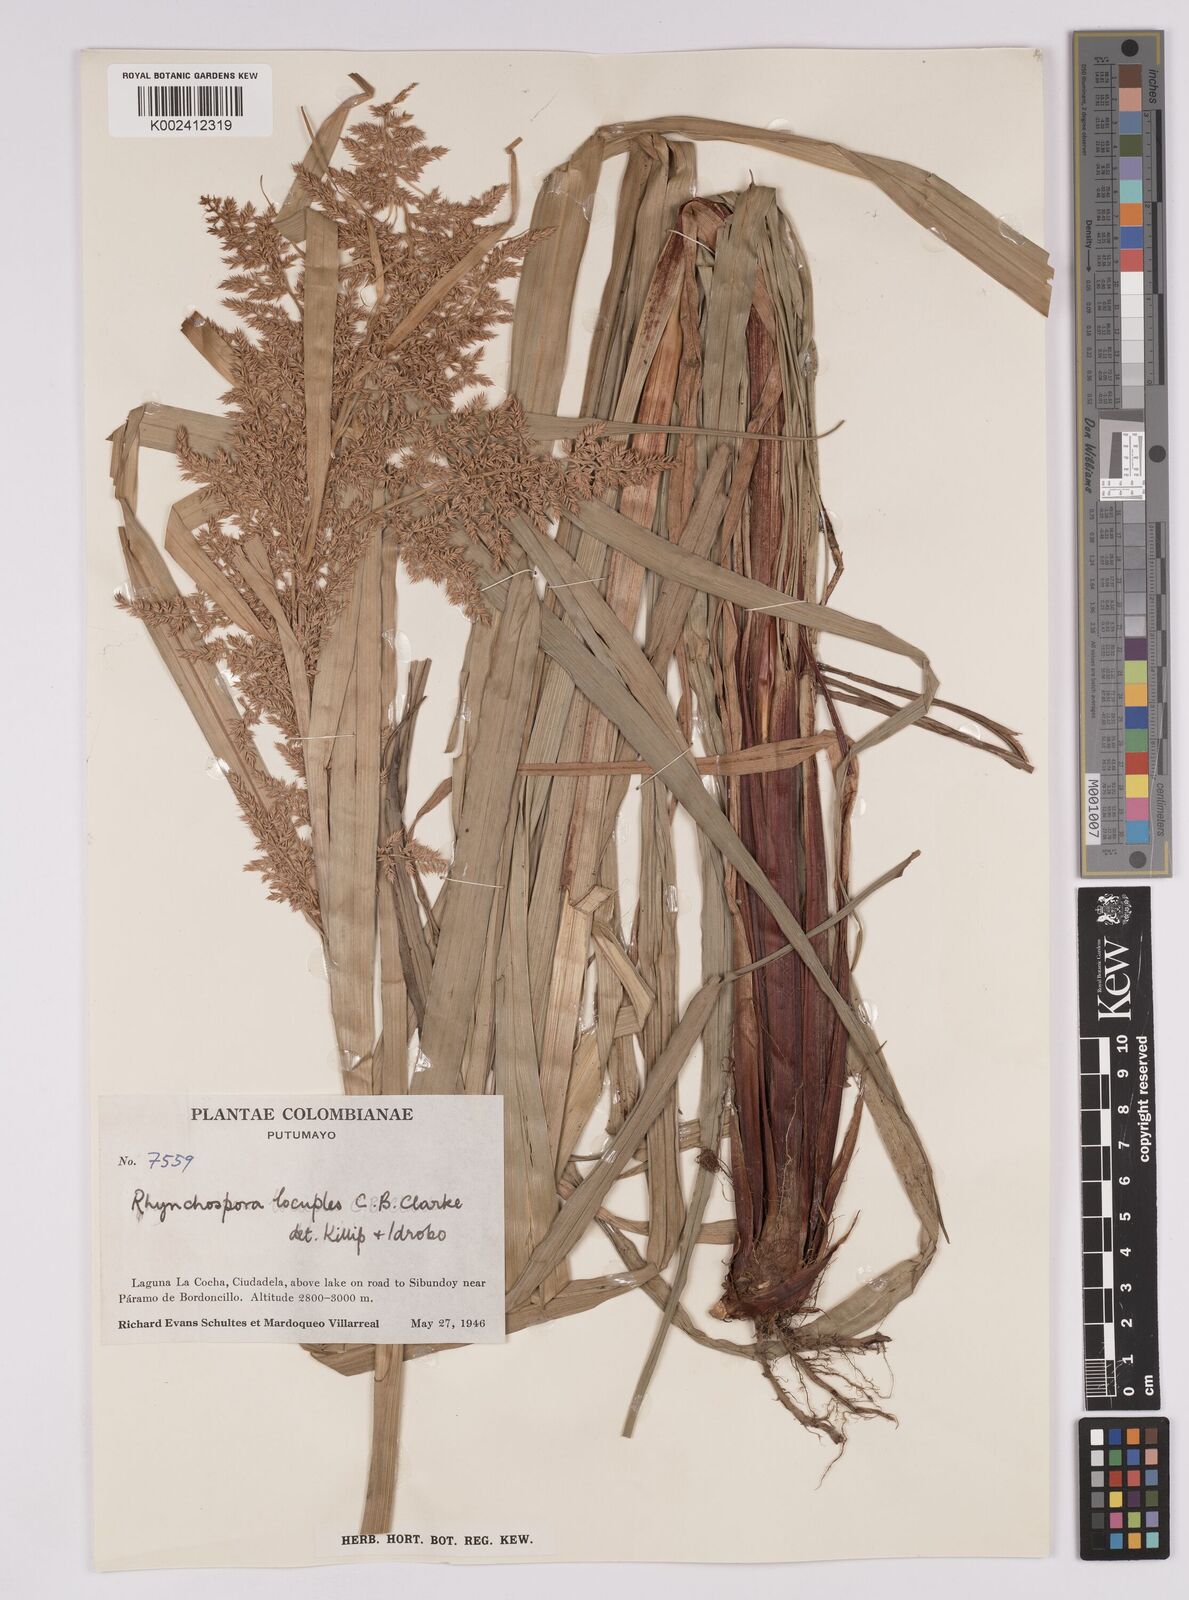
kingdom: Plantae
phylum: Tracheophyta
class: Liliopsida
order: Poales
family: Cyperaceae
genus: Rhynchospora
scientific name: Rhynchospora locuples
